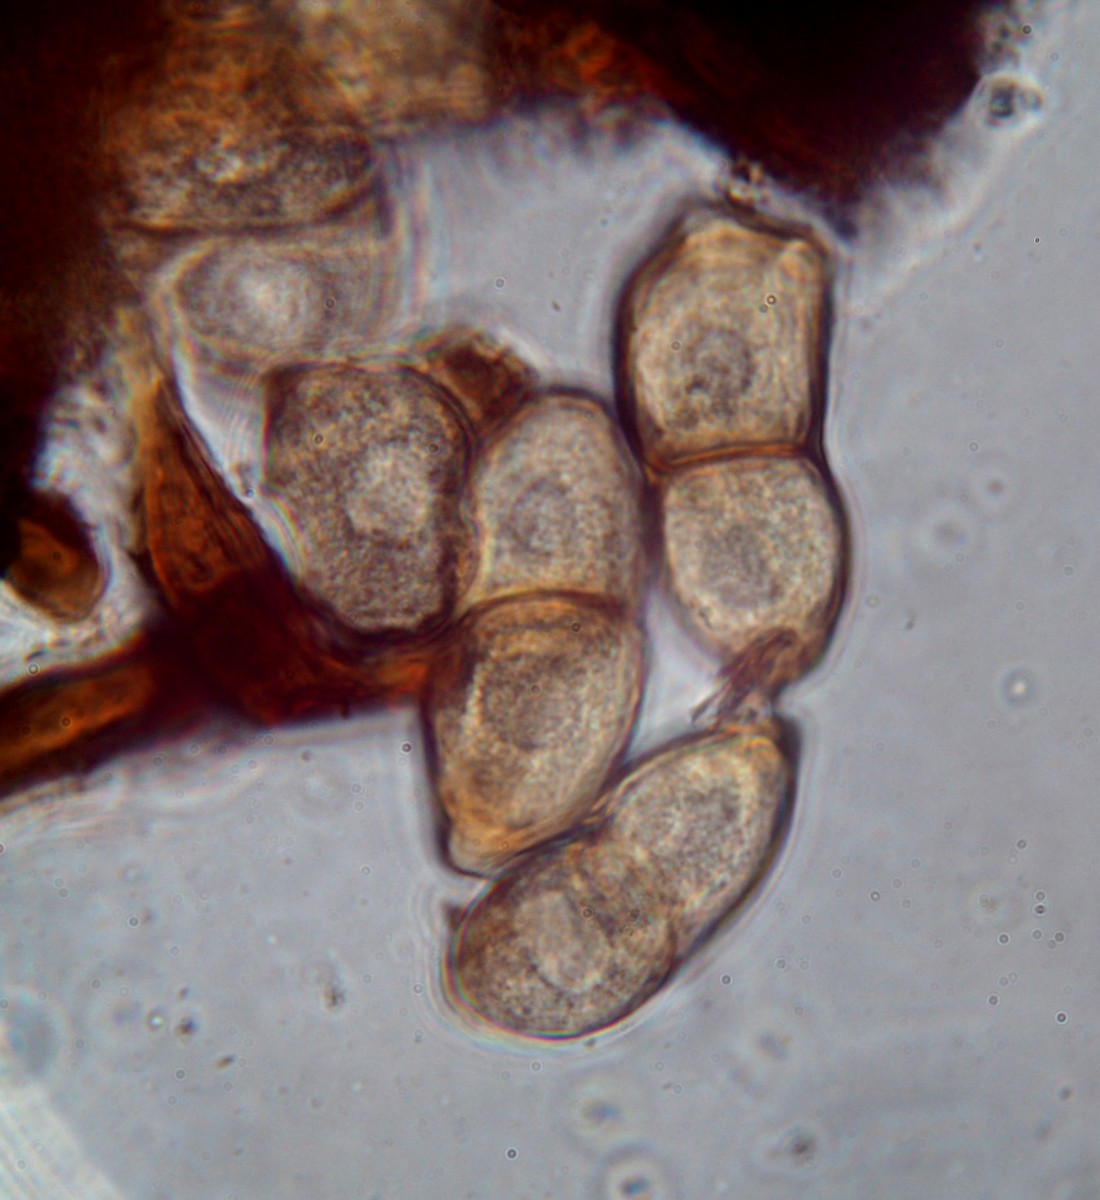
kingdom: Fungi
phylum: Basidiomycota
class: Pucciniomycetes
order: Pucciniales
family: Pucciniaceae
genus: Peristemma
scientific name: Peristemma pseudosphaeria
